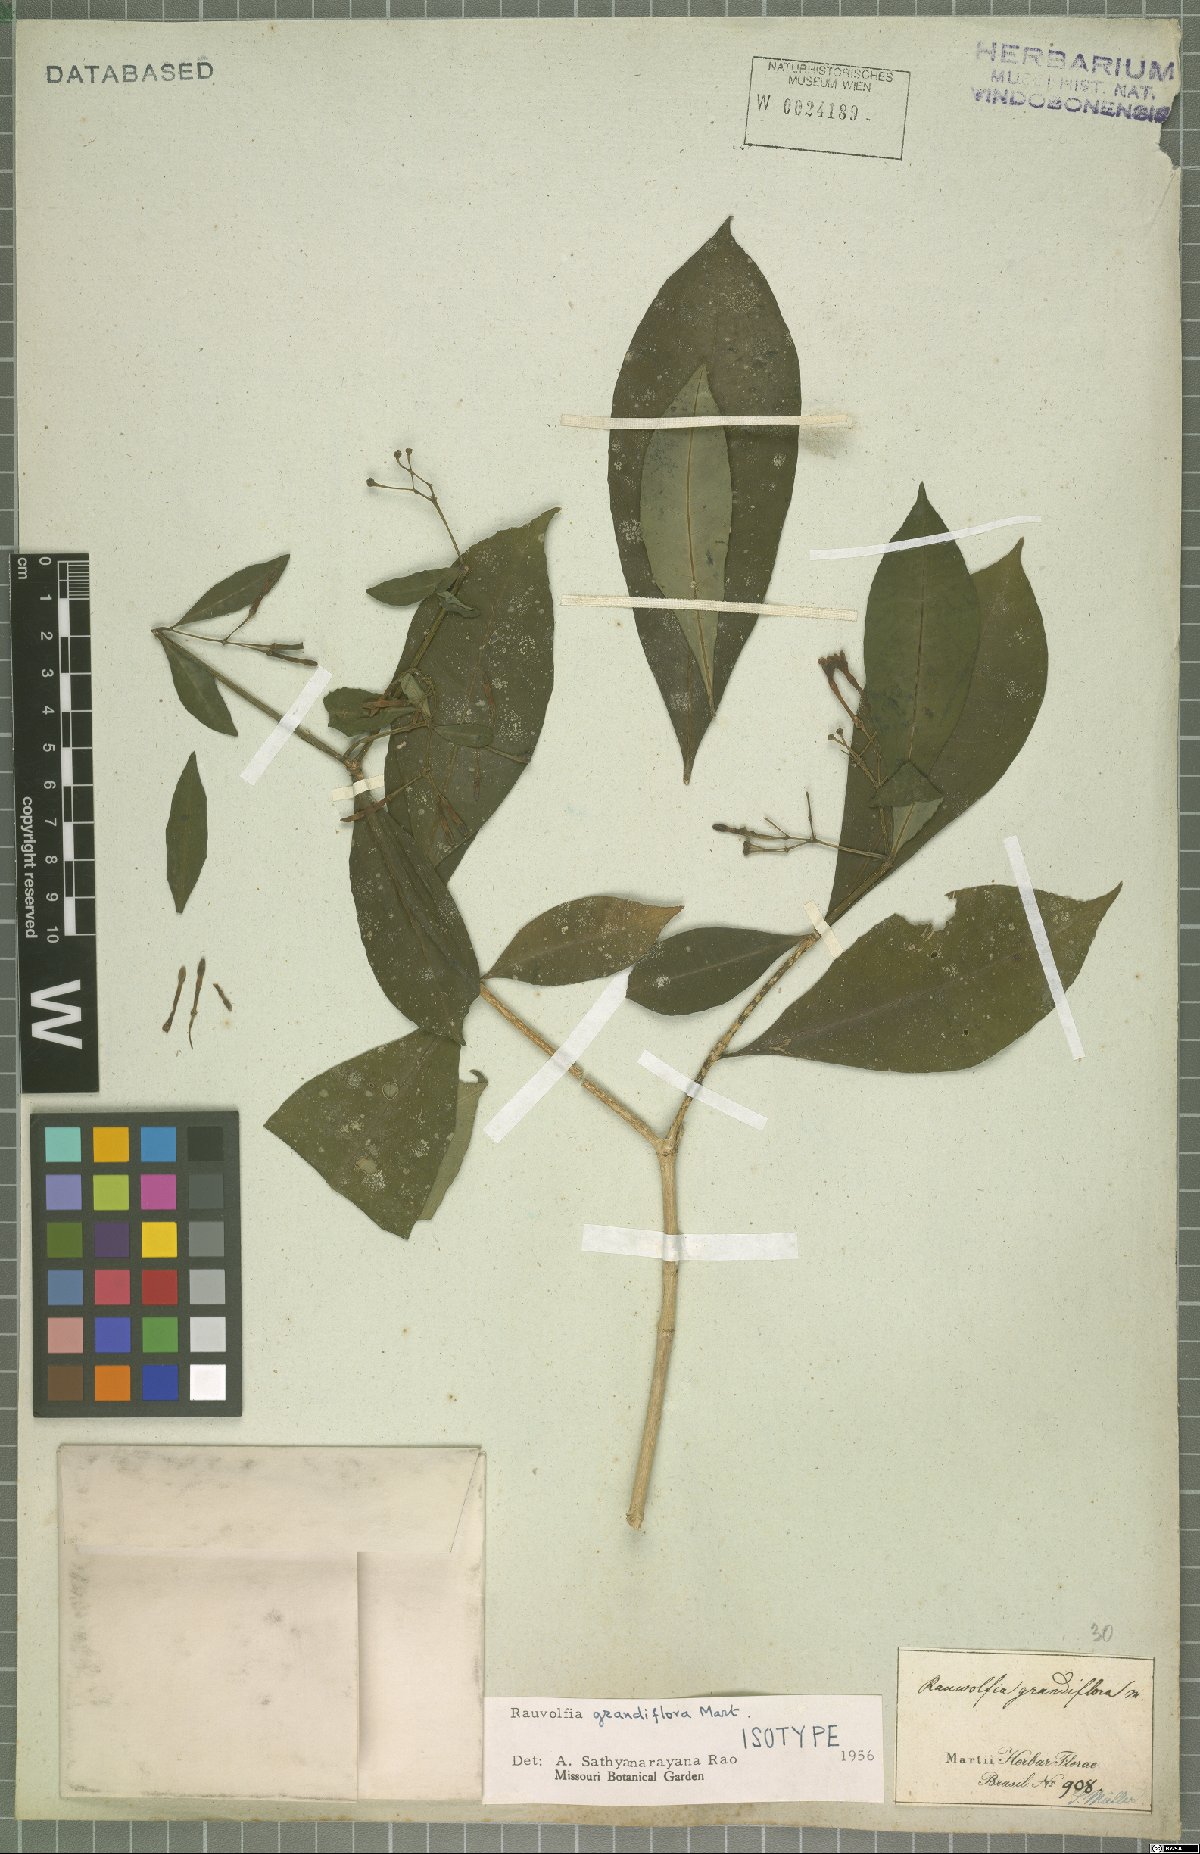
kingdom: Plantae
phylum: Tracheophyta
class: Magnoliopsida
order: Gentianales
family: Apocynaceae
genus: Rauvolfia
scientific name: Rauvolfia grandiflora
